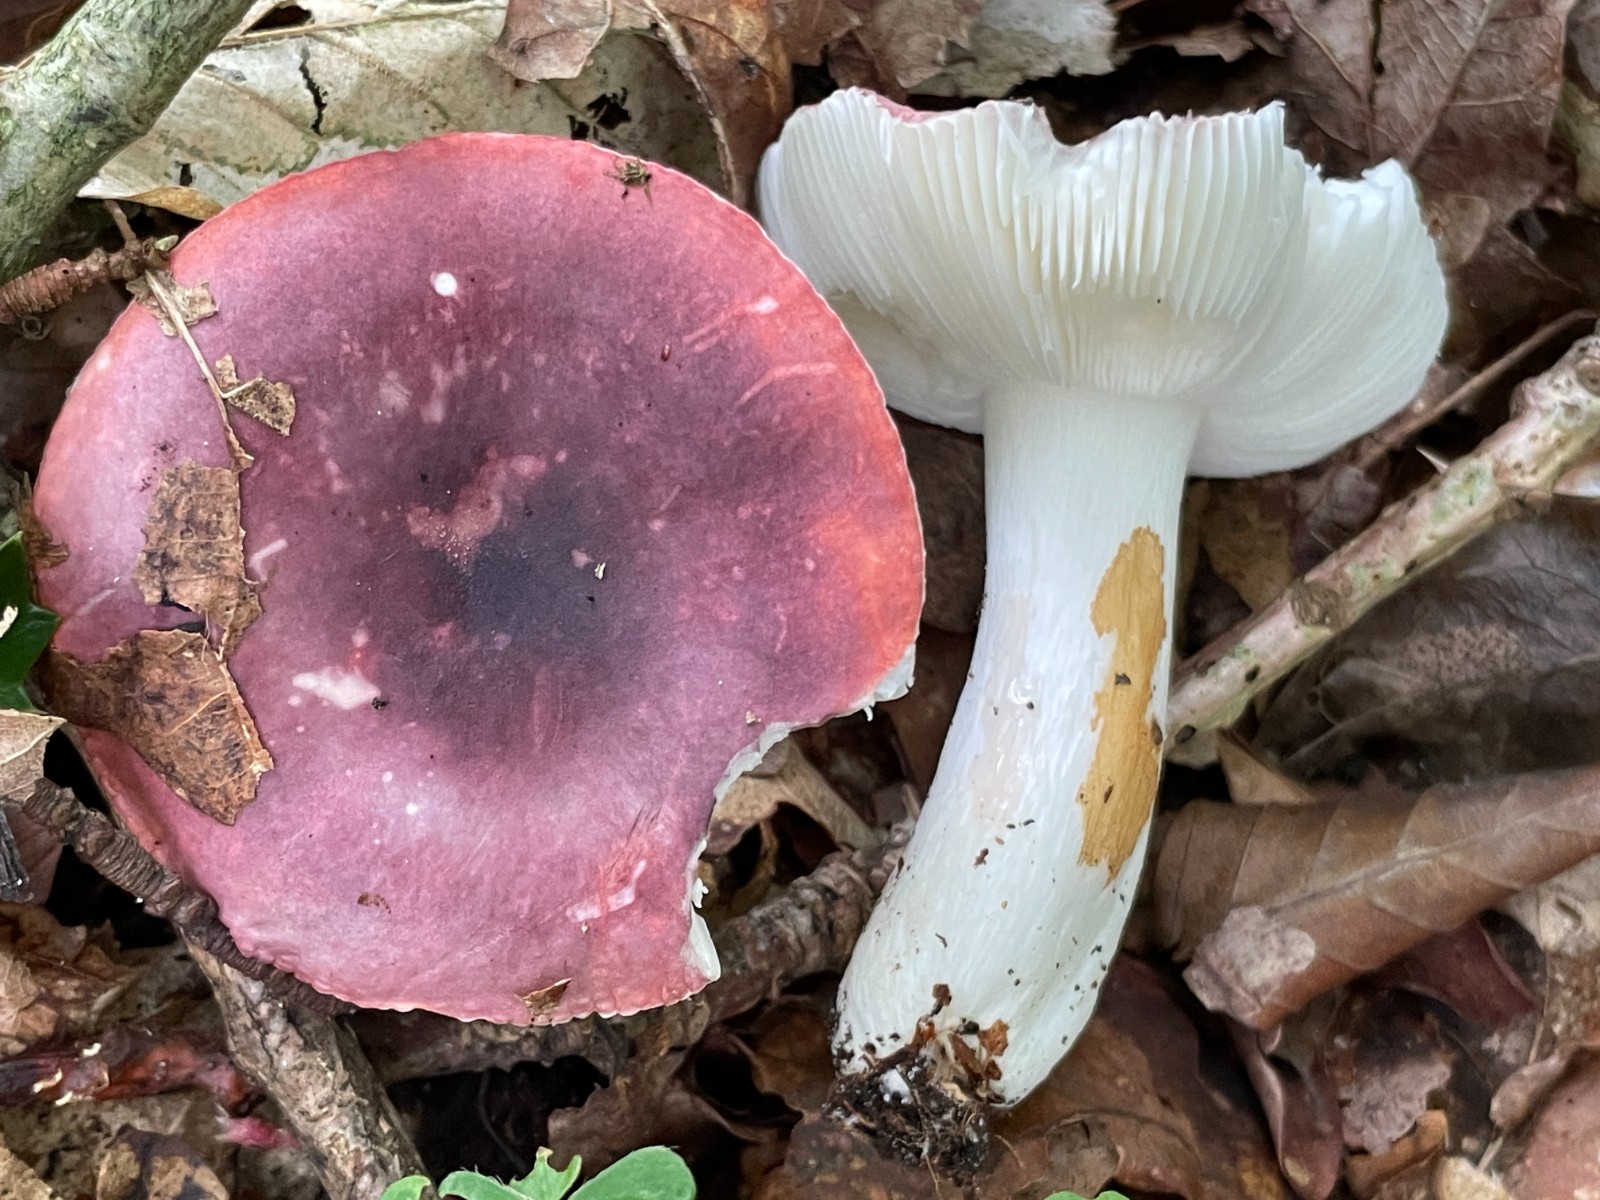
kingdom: Fungi
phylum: Basidiomycota
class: Agaricomycetes
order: Russulales
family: Russulaceae
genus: Russula
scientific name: Russula atropurpurea
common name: purpurbroget skørhat
